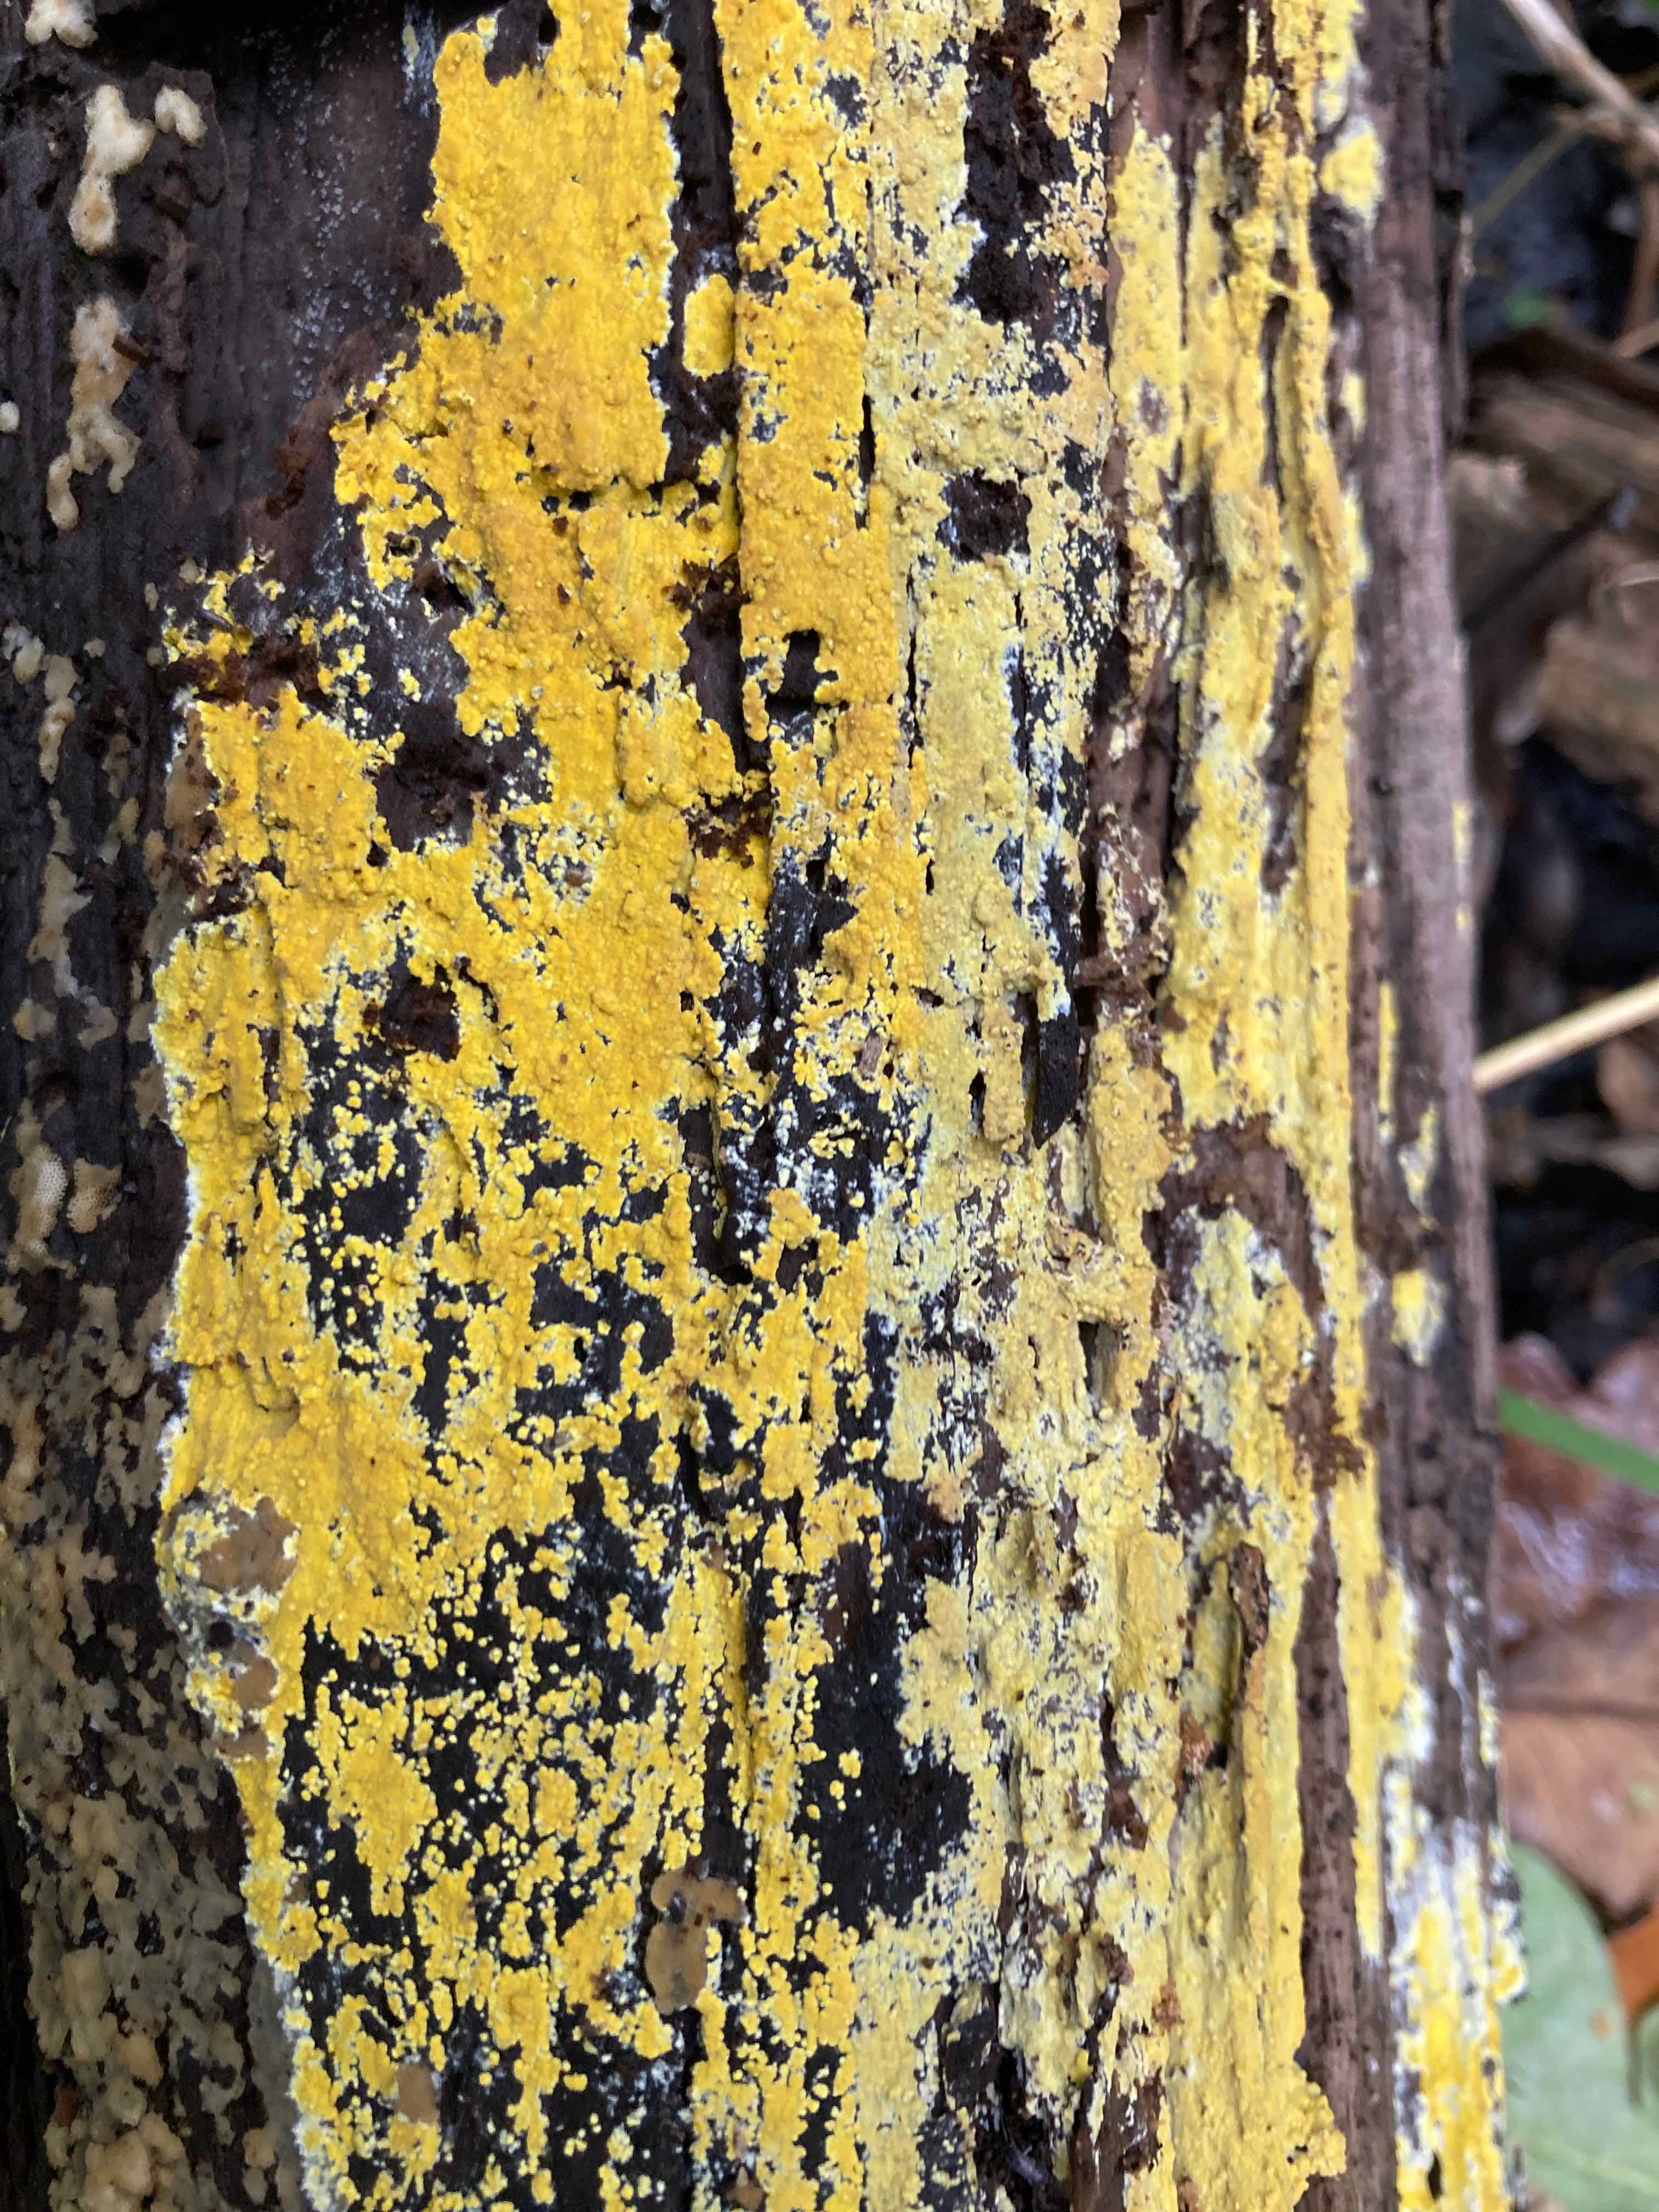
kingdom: Fungi
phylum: Basidiomycota
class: Agaricomycetes
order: Polyporales
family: Meruliaceae
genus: Phlebiodontia
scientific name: Phlebiodontia subochracea
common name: svovl-åresvamp
